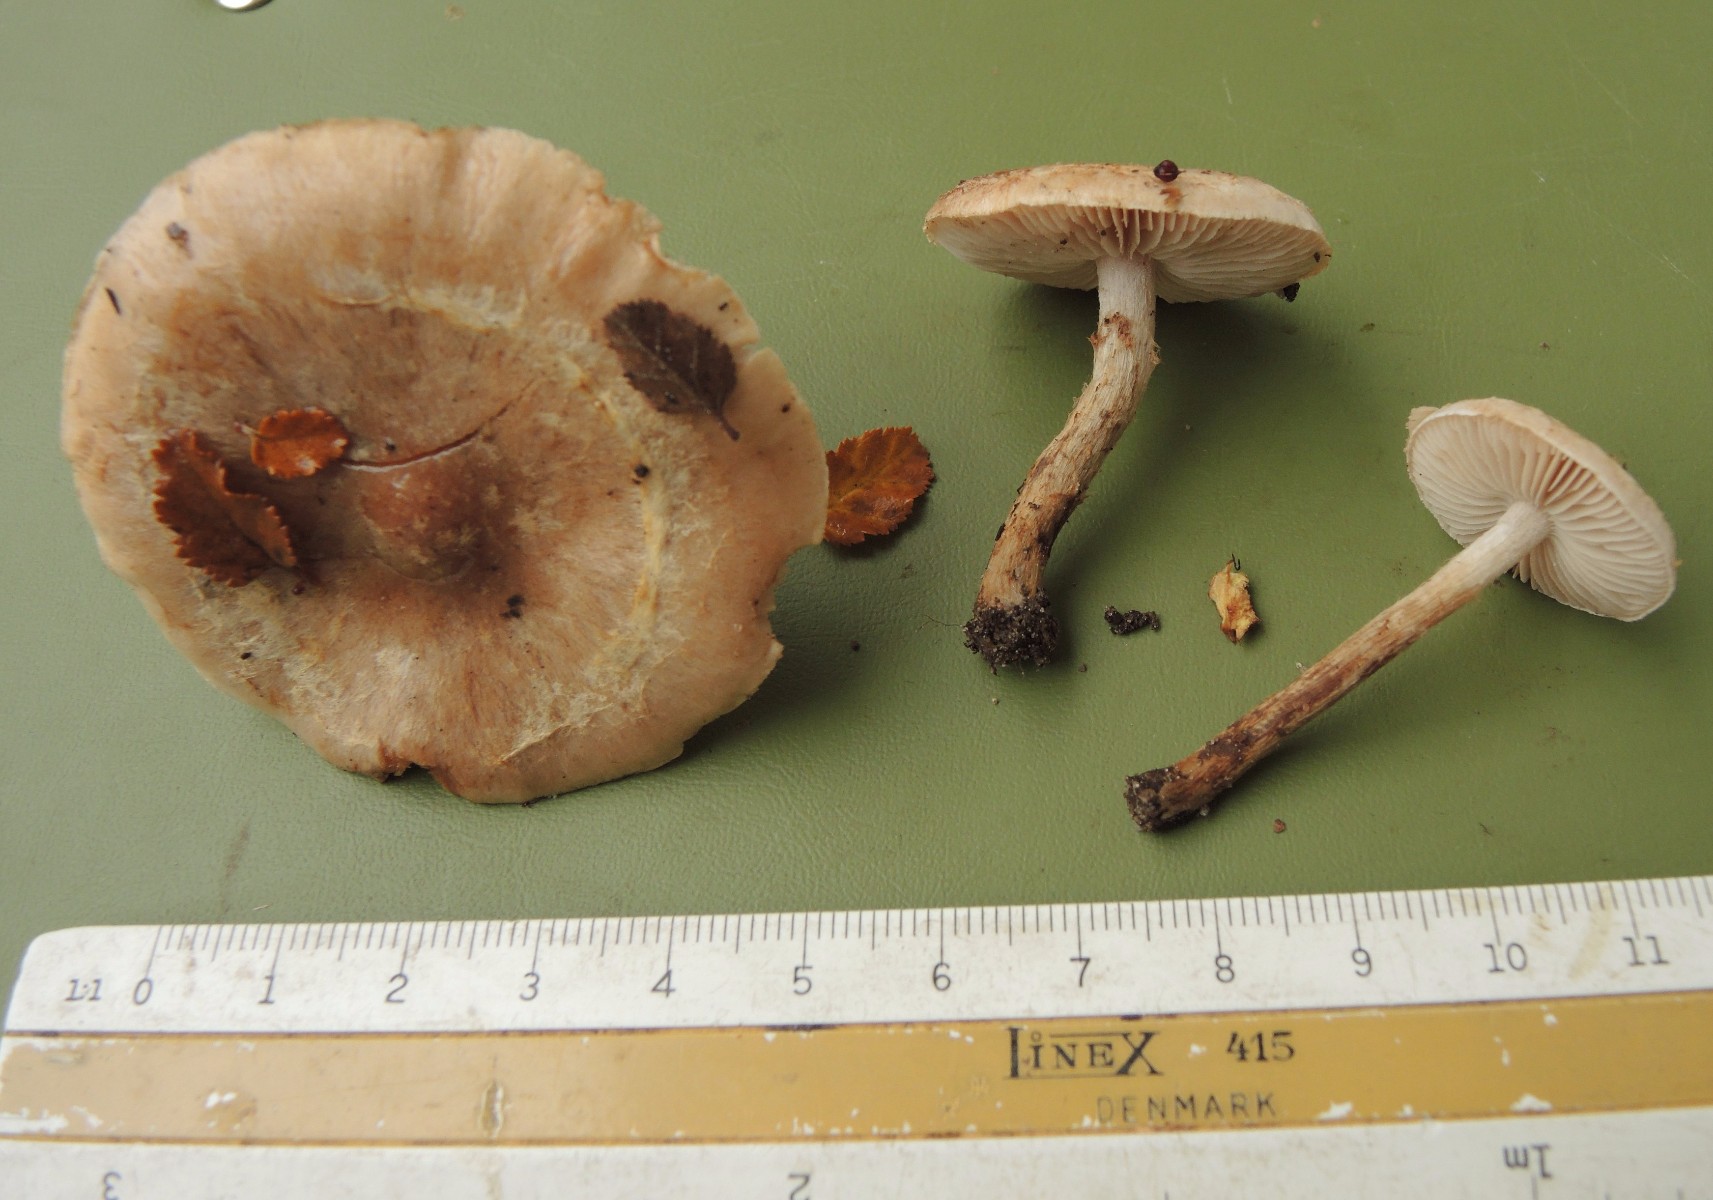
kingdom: Fungi
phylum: Basidiomycota
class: Agaricomycetes
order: Agaricales
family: Hymenogastraceae
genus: Hebeloma
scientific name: Hebeloma mesophaeum
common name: lerbrun tåreblad
